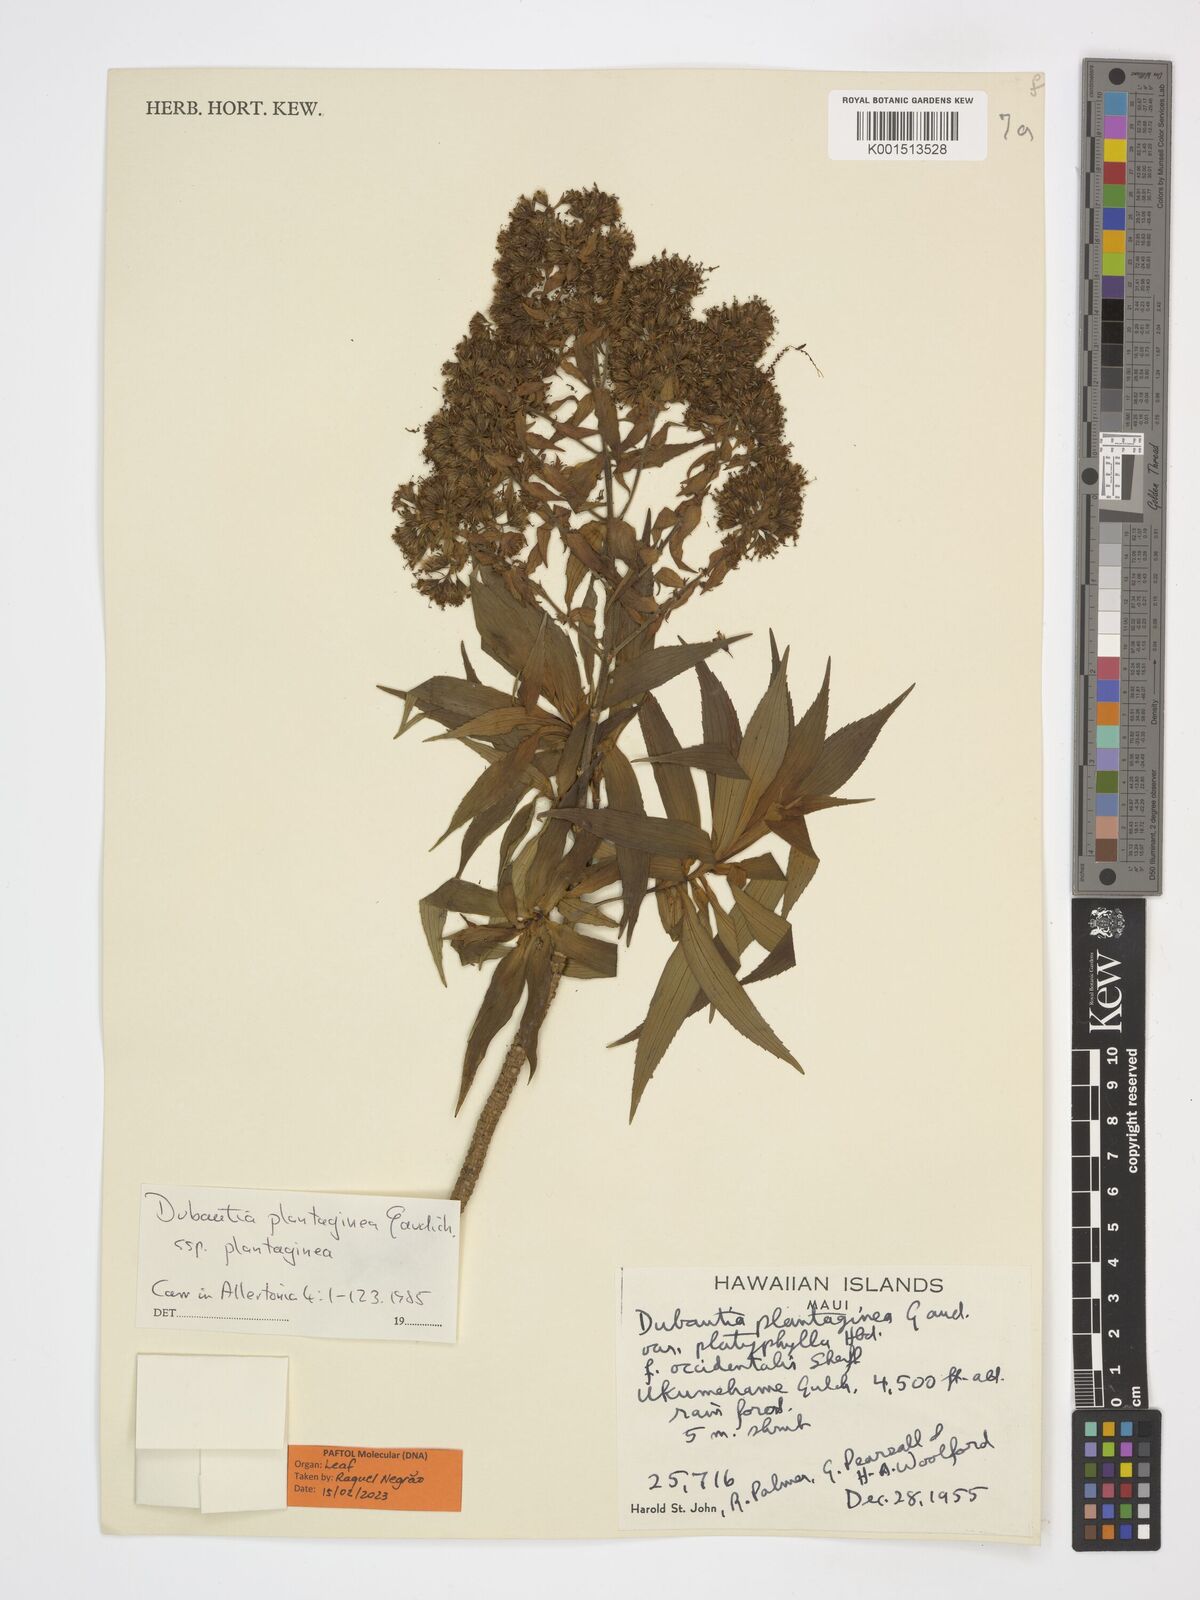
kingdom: Plantae
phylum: Tracheophyta
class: Magnoliopsida
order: Asterales
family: Asteraceae
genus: Dubautia
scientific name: Dubautia plantaginea
